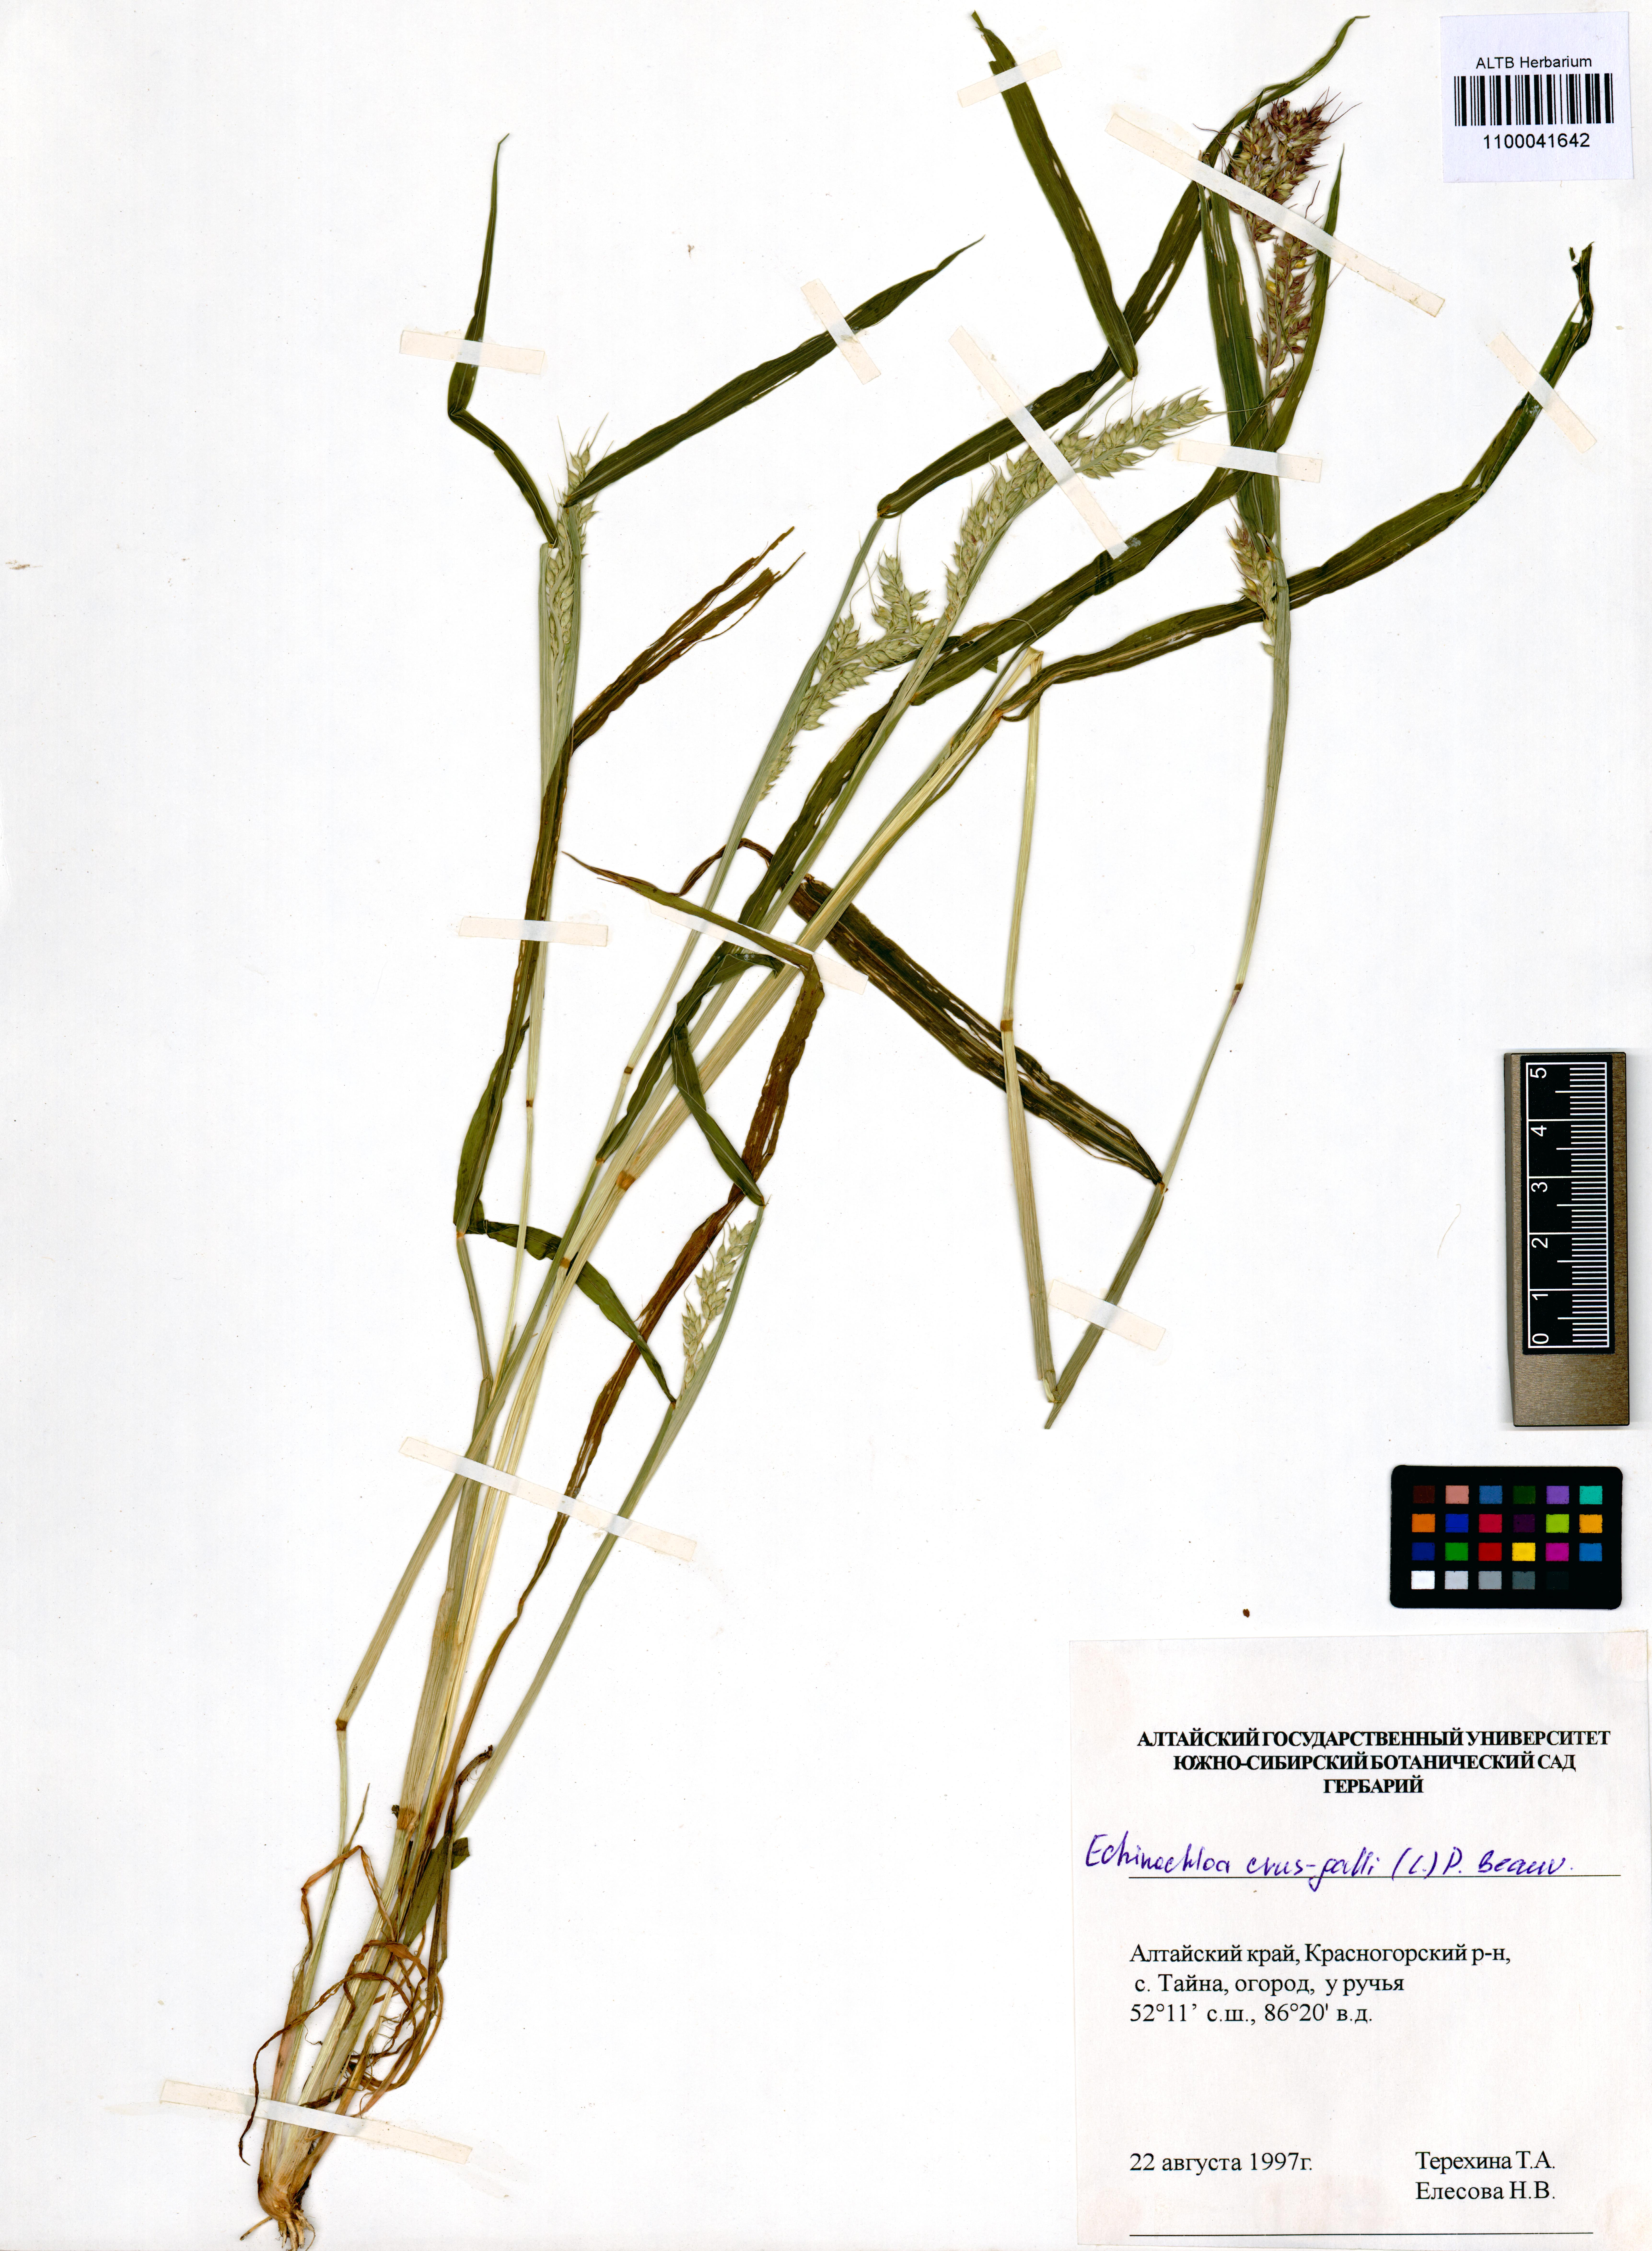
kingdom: Plantae
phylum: Tracheophyta
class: Liliopsida
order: Poales
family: Poaceae
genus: Echinochloa
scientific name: Echinochloa crus-galli
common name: Cockspur
